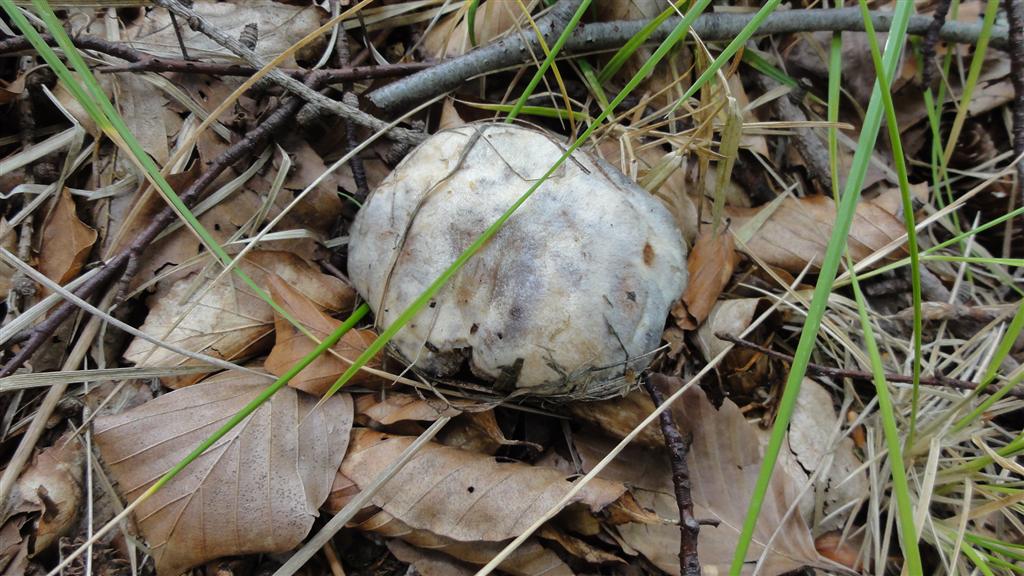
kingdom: Fungi
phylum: Basidiomycota
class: Agaricomycetes
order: Boletales
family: Suillaceae
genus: Suillus
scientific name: Suillus viscidus
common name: olivengrå slimrørhat
